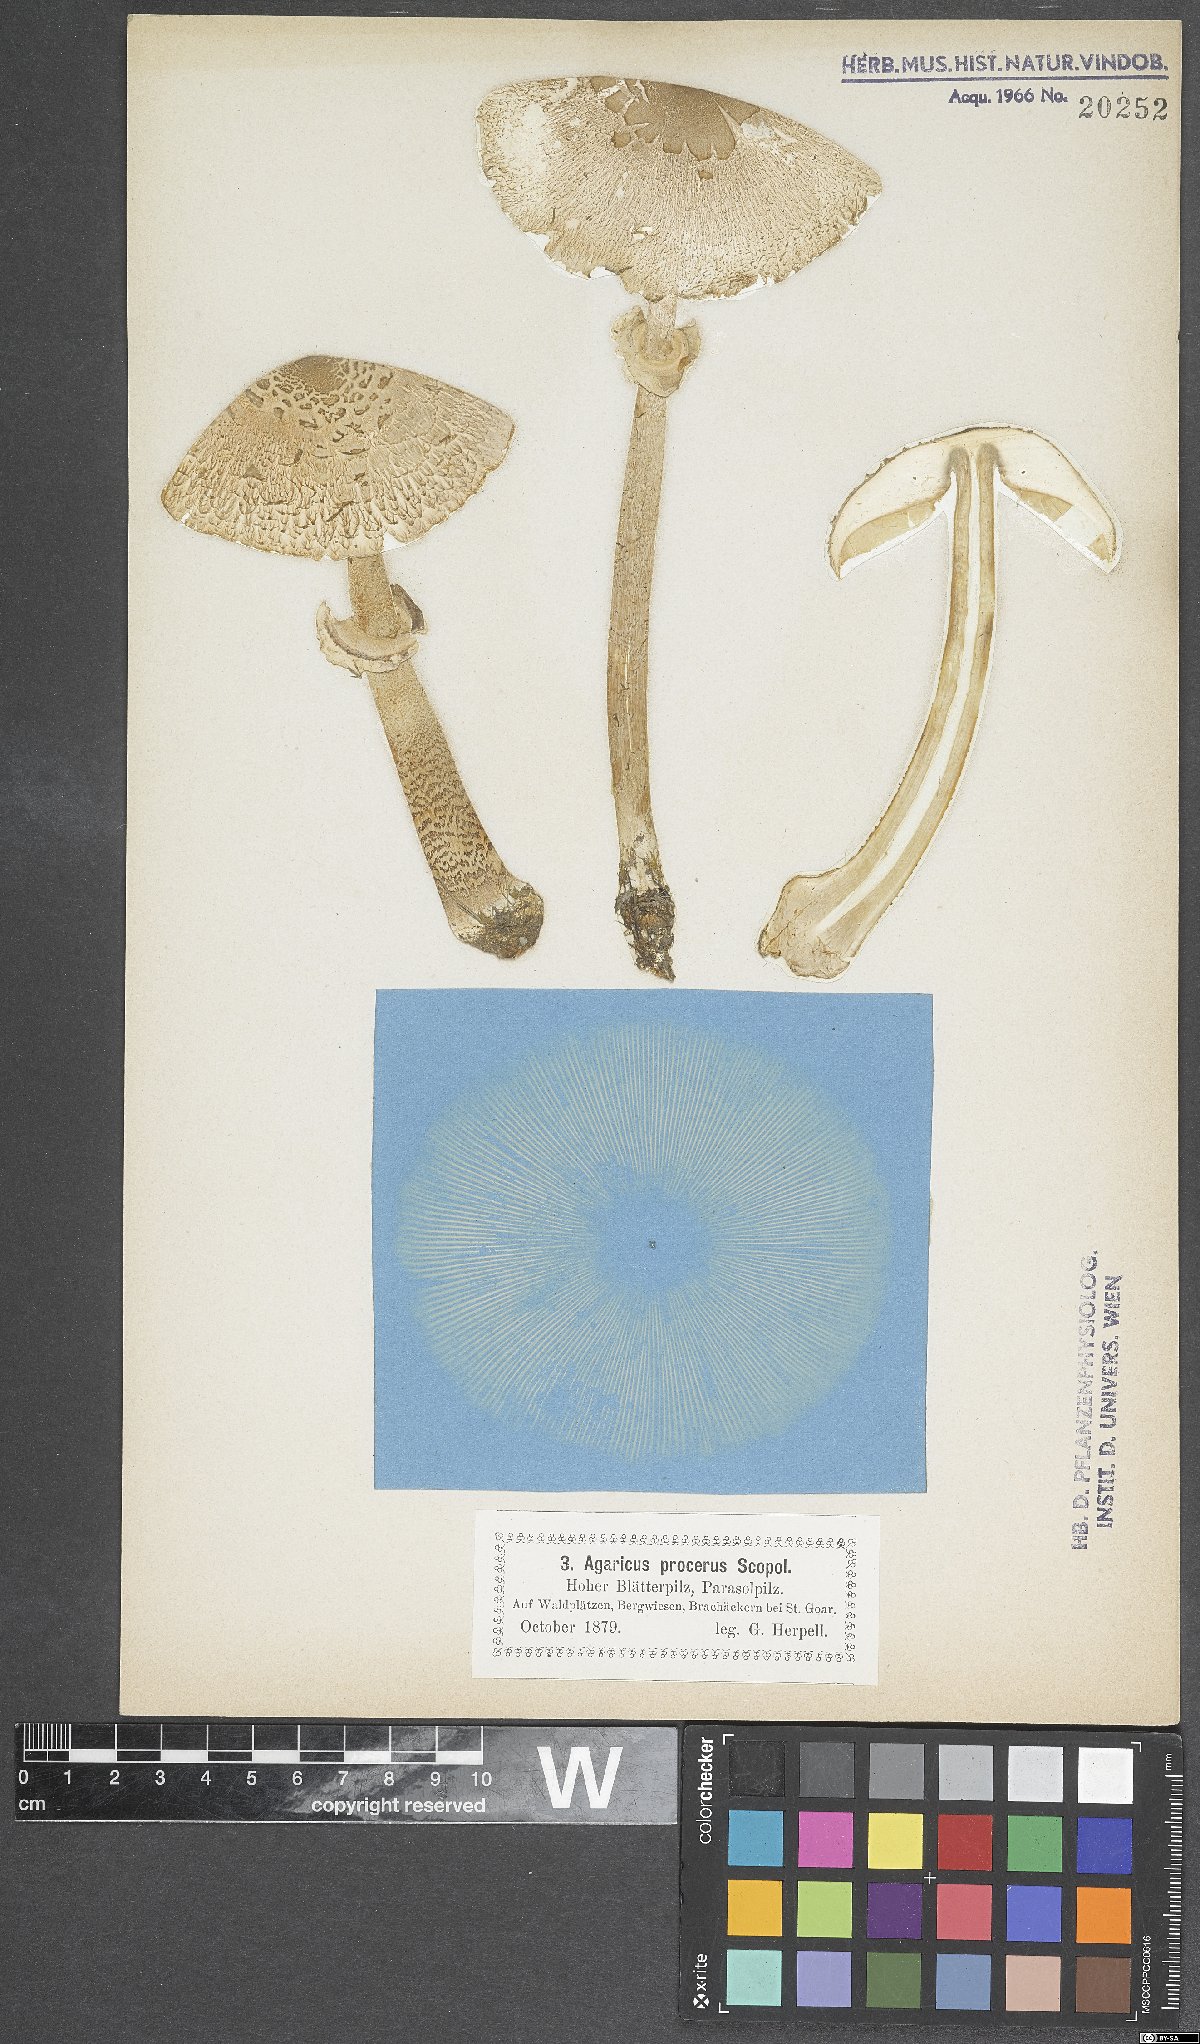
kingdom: Fungi
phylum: Basidiomycota
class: Agaricomycetes
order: Agaricales
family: Agaricaceae
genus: Macrolepiota
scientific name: Macrolepiota procera
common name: Parasol
